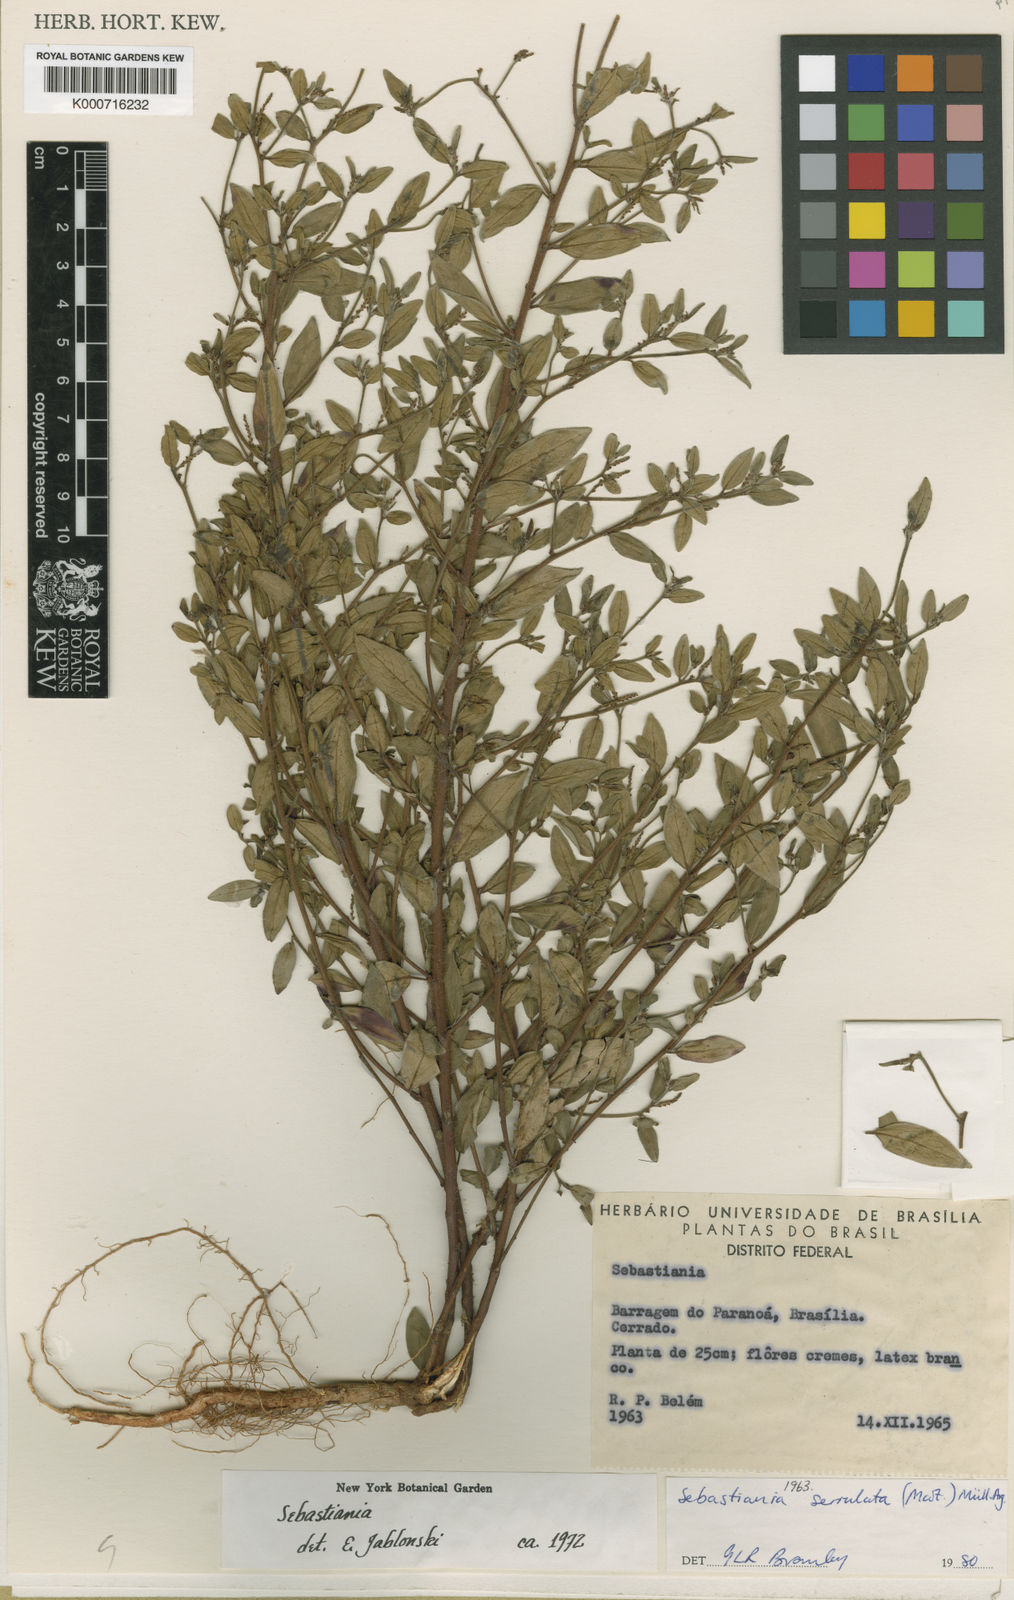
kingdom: Plantae
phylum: Tracheophyta
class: Magnoliopsida
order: Malpighiales
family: Euphorbiaceae
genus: Sebastiania
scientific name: Sebastiania
